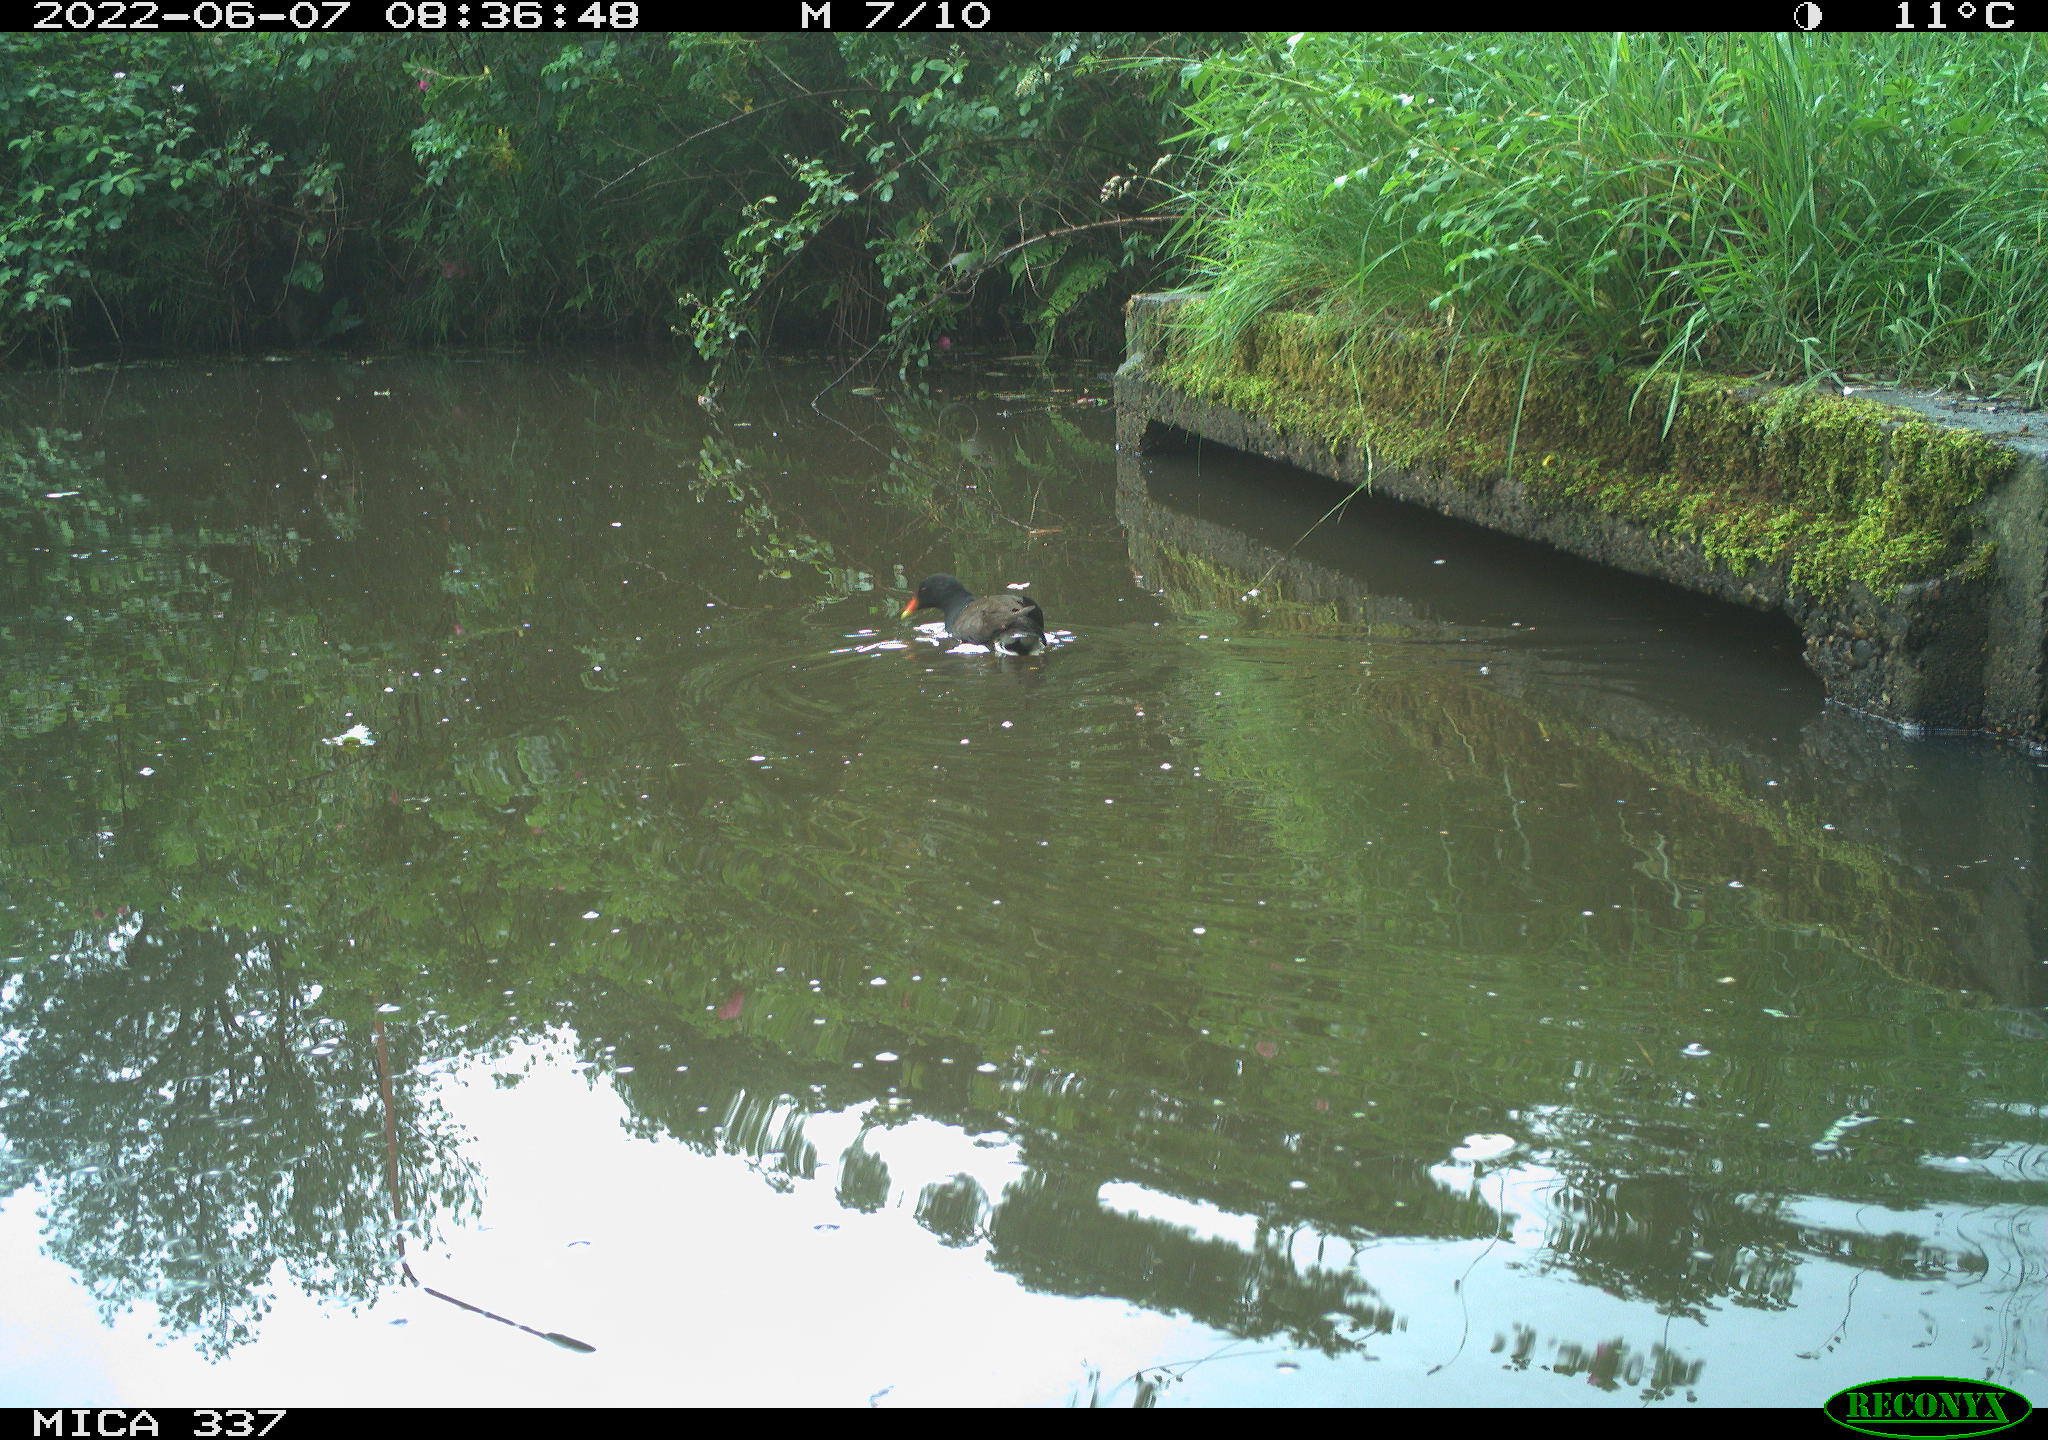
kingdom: Animalia
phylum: Chordata
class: Aves
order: Gruiformes
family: Rallidae
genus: Gallinula
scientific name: Gallinula chloropus
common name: Common moorhen
